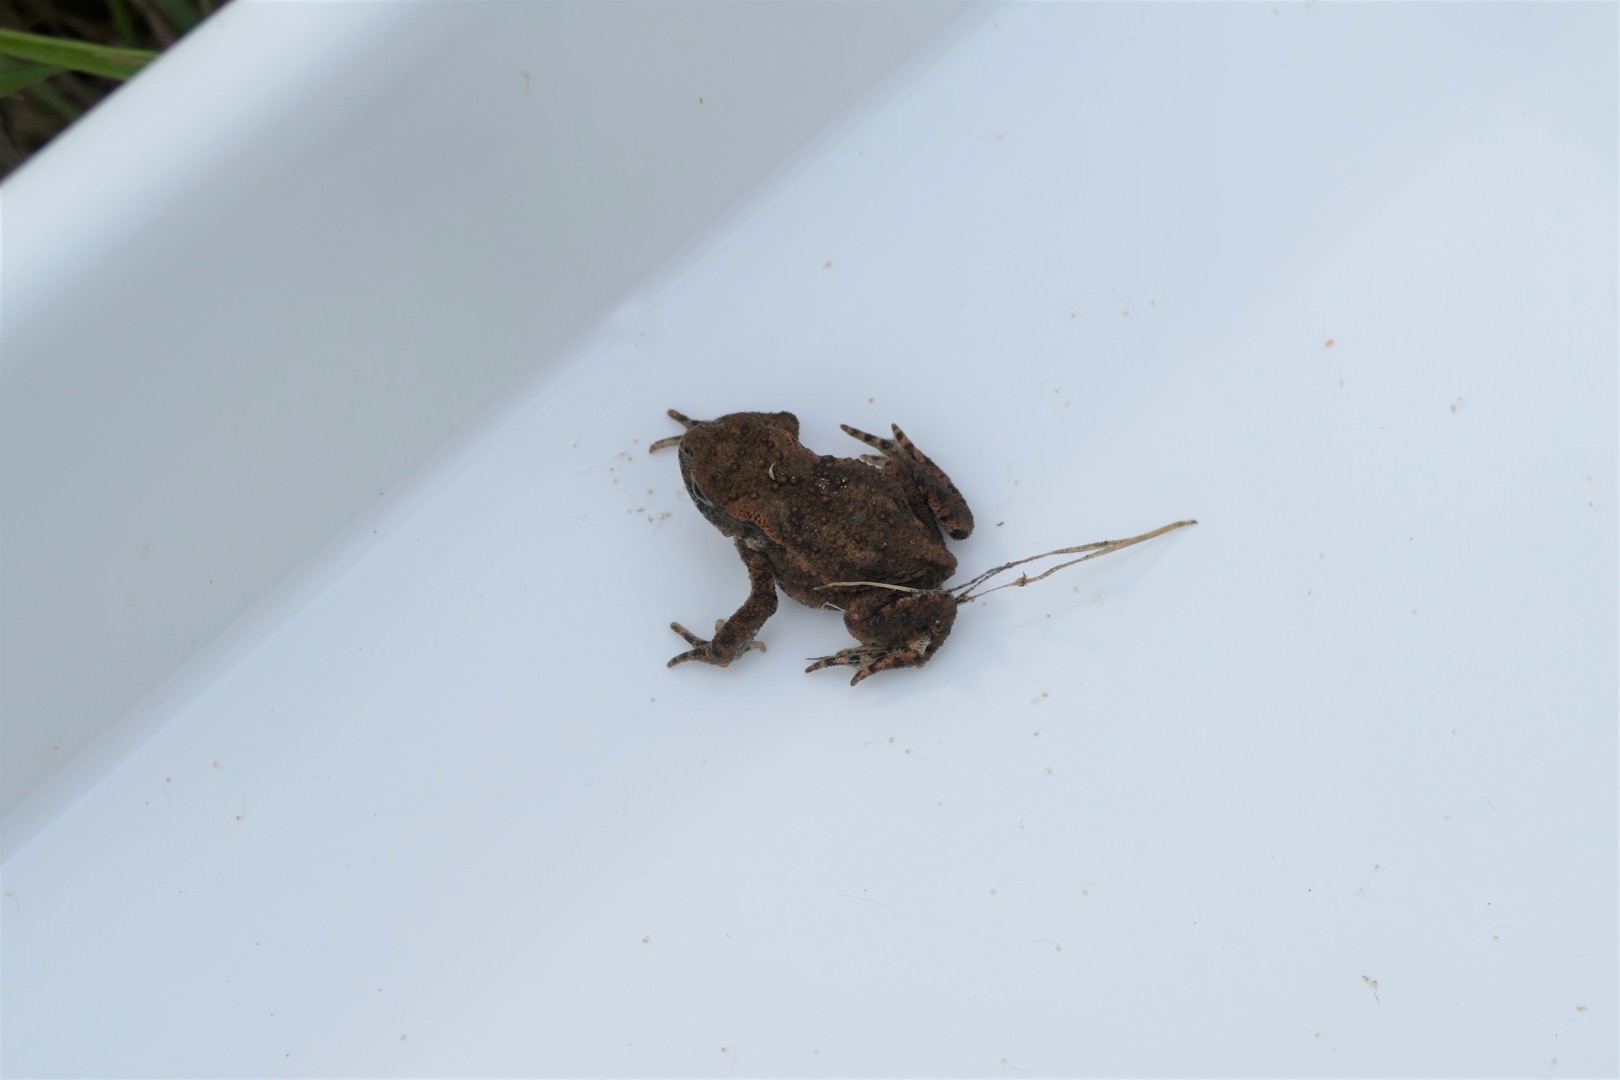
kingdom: Animalia
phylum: Chordata
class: Amphibia
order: Anura
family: Bufonidae
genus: Bufo
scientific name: Bufo bufo
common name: Skrubtudse
